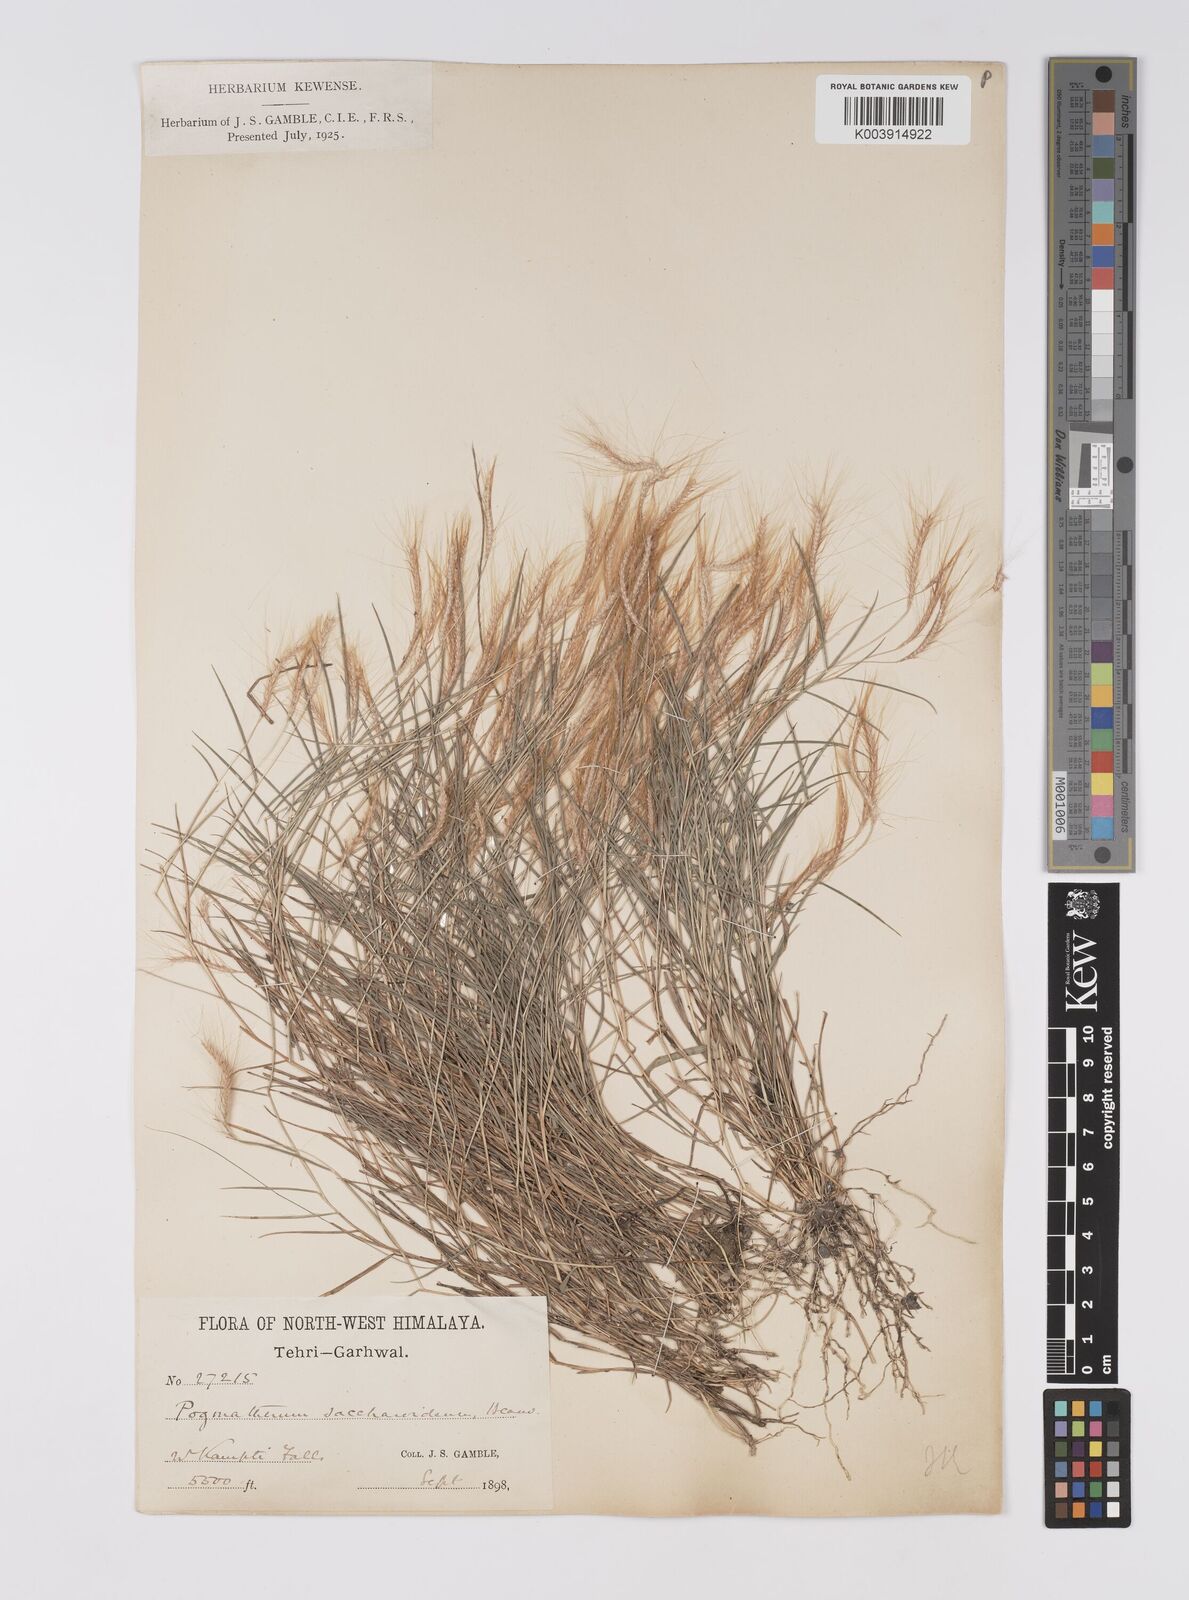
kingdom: Plantae
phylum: Tracheophyta
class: Liliopsida
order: Poales
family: Poaceae
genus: Pogonatherum
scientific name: Pogonatherum paniceum
